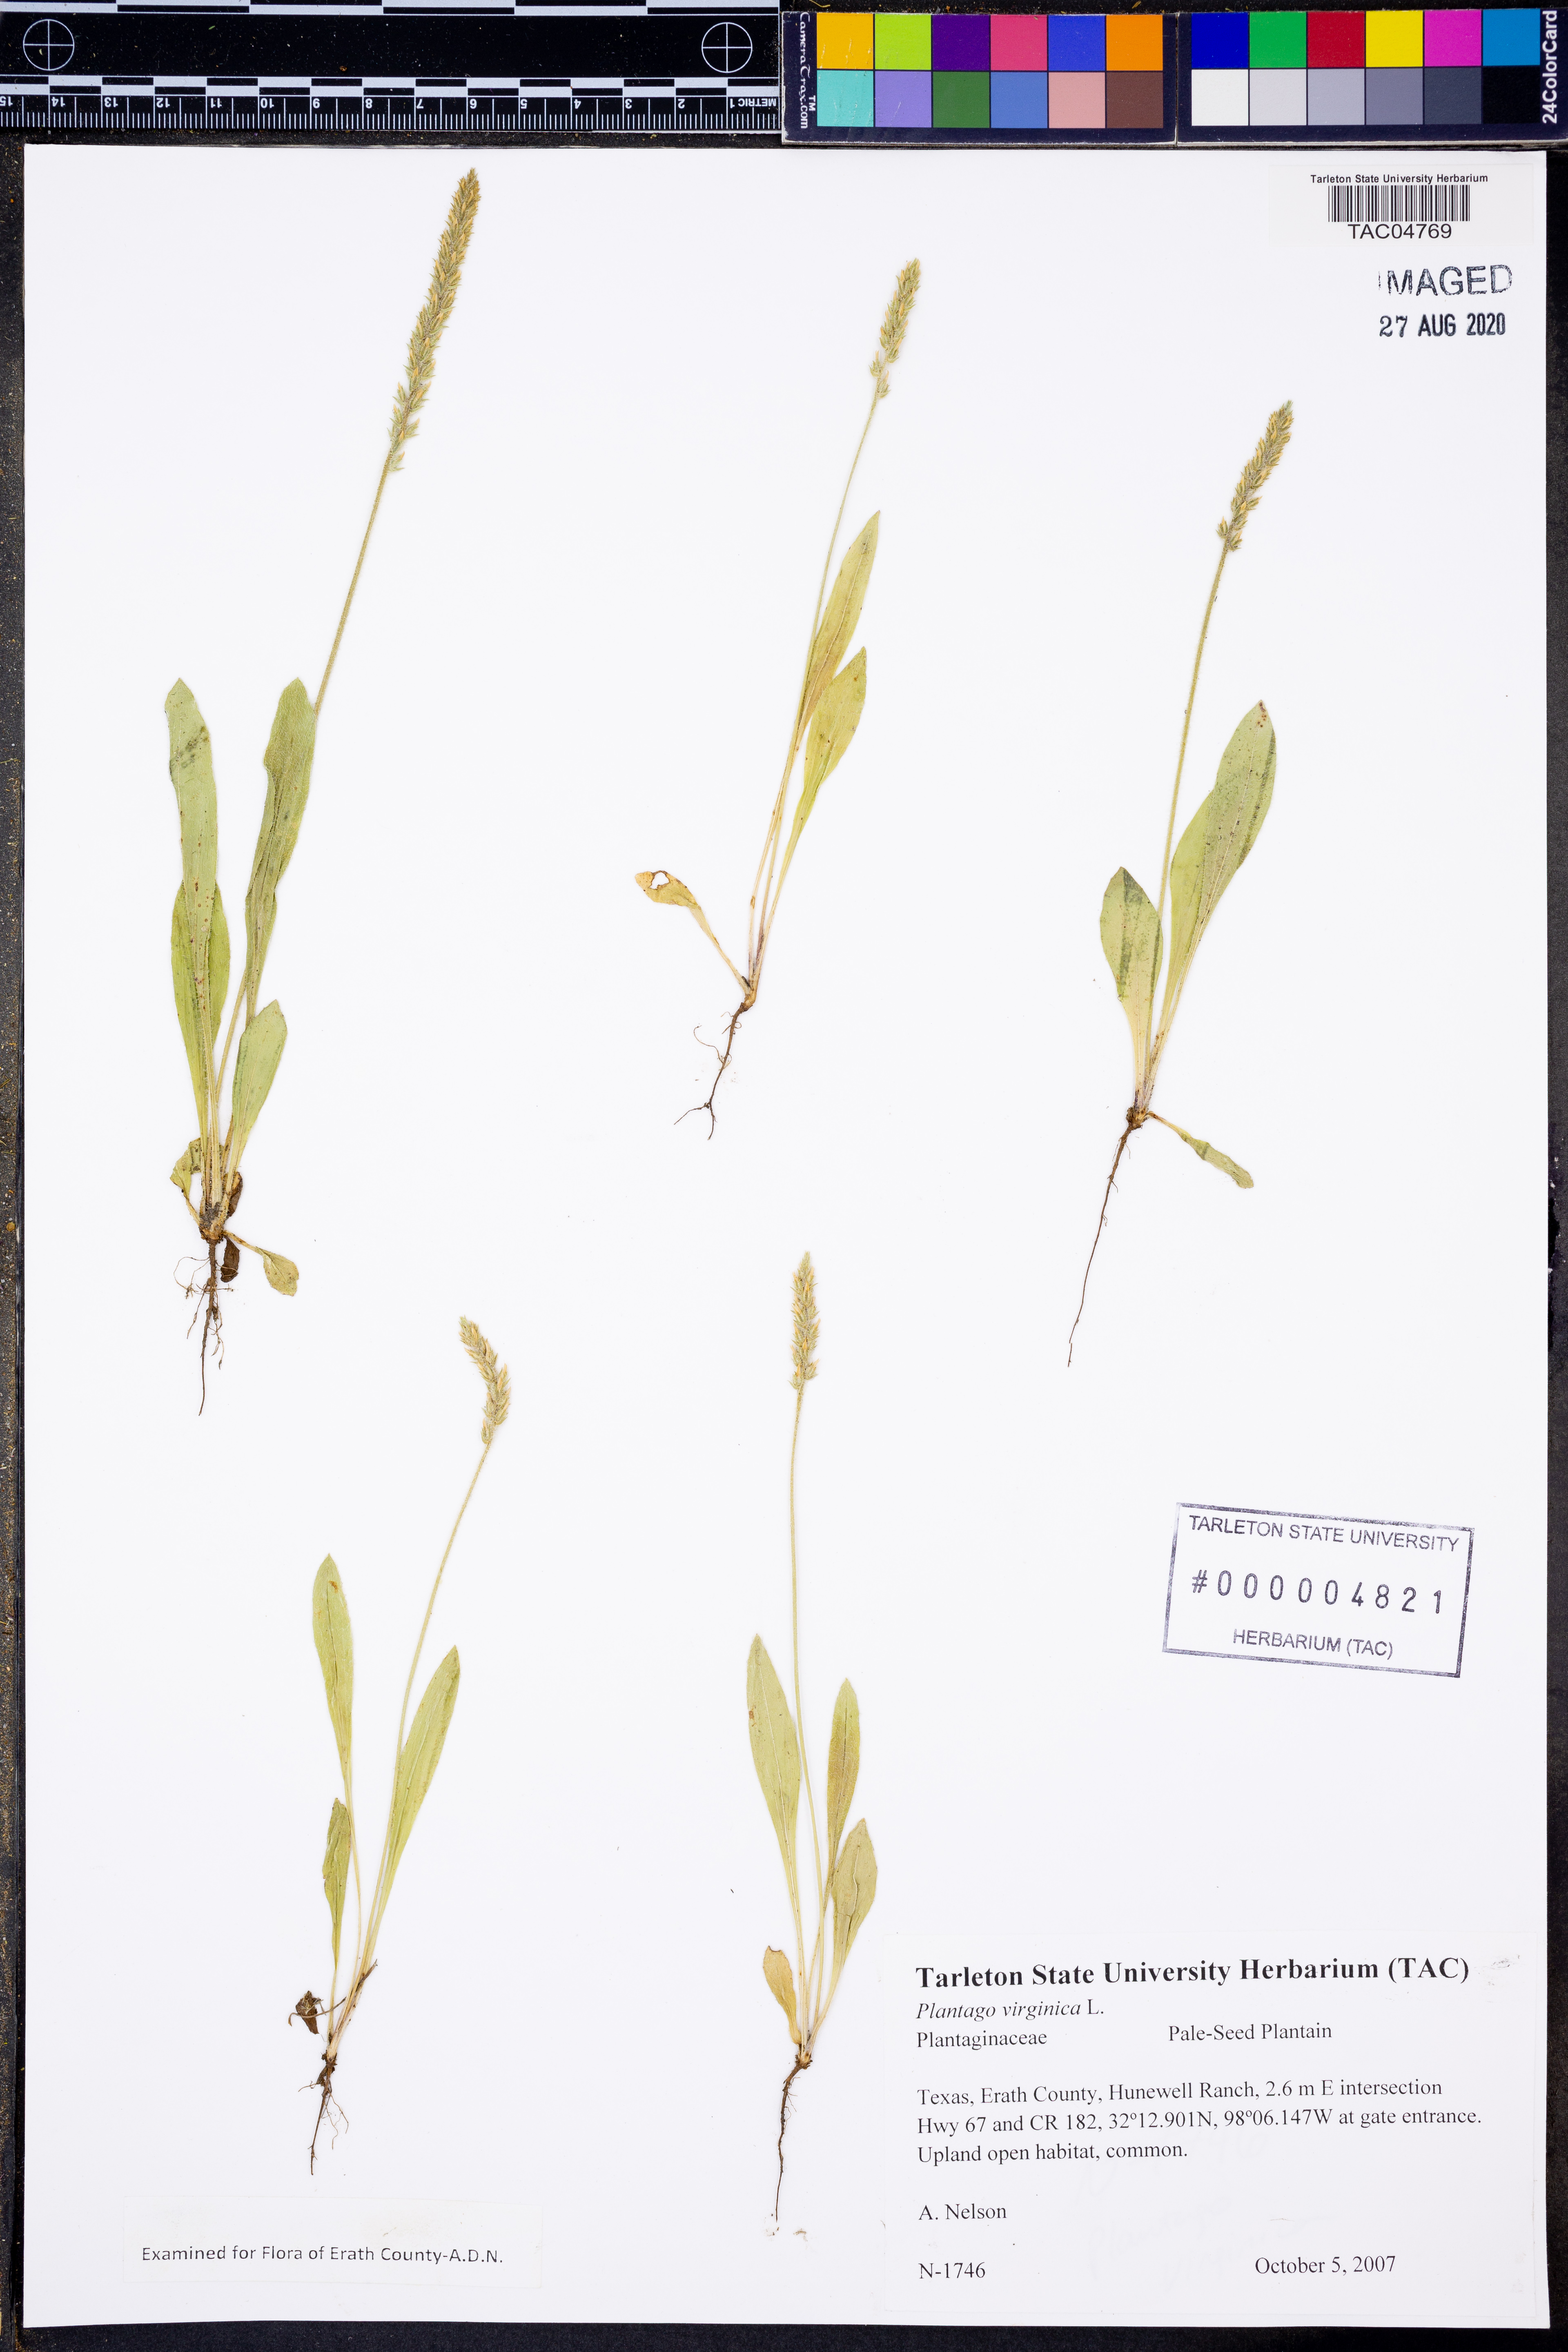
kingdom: Plantae
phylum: Tracheophyta
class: Magnoliopsida
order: Lamiales
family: Plantaginaceae
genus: Plantago
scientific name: Plantago virginica
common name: Hoary plantain
